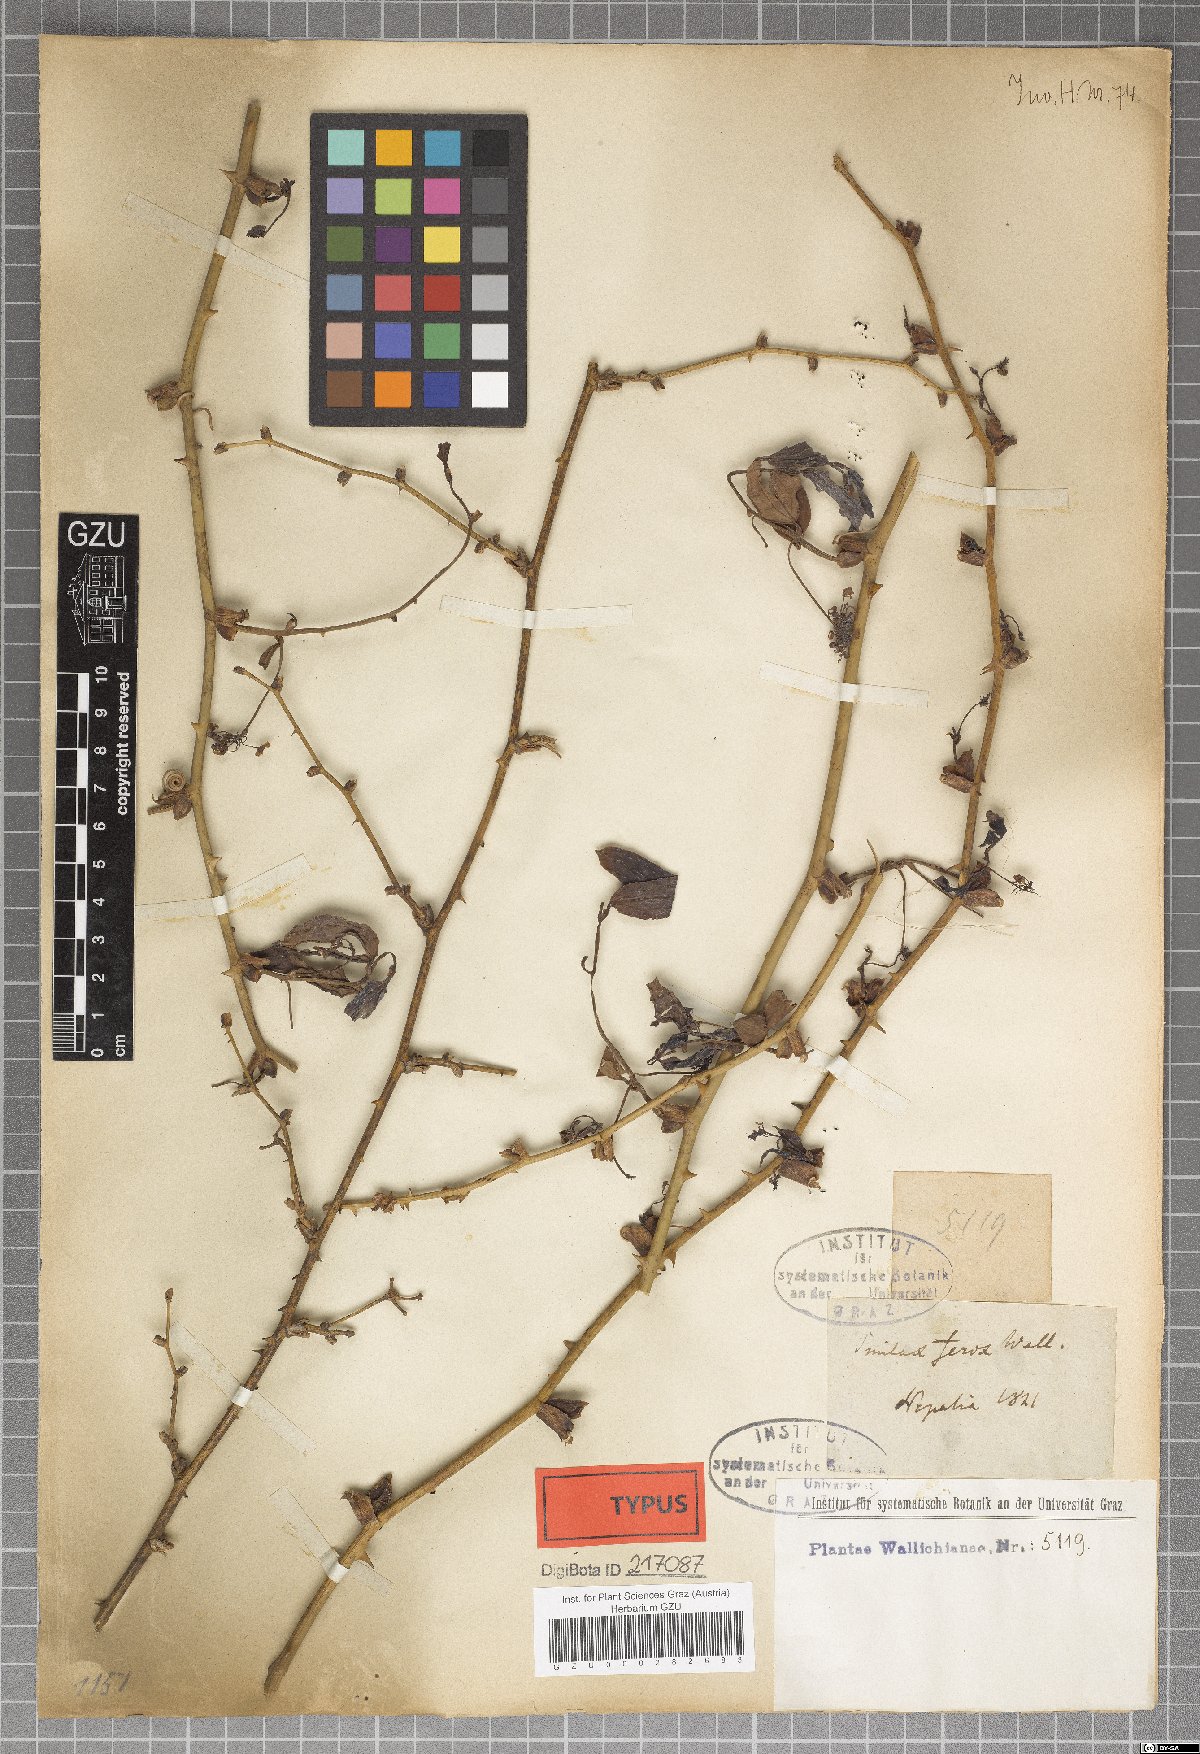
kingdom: Plantae
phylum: Tracheophyta
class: Liliopsida
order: Liliales
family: Smilacaceae
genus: Smilax
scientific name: Smilax ferox
